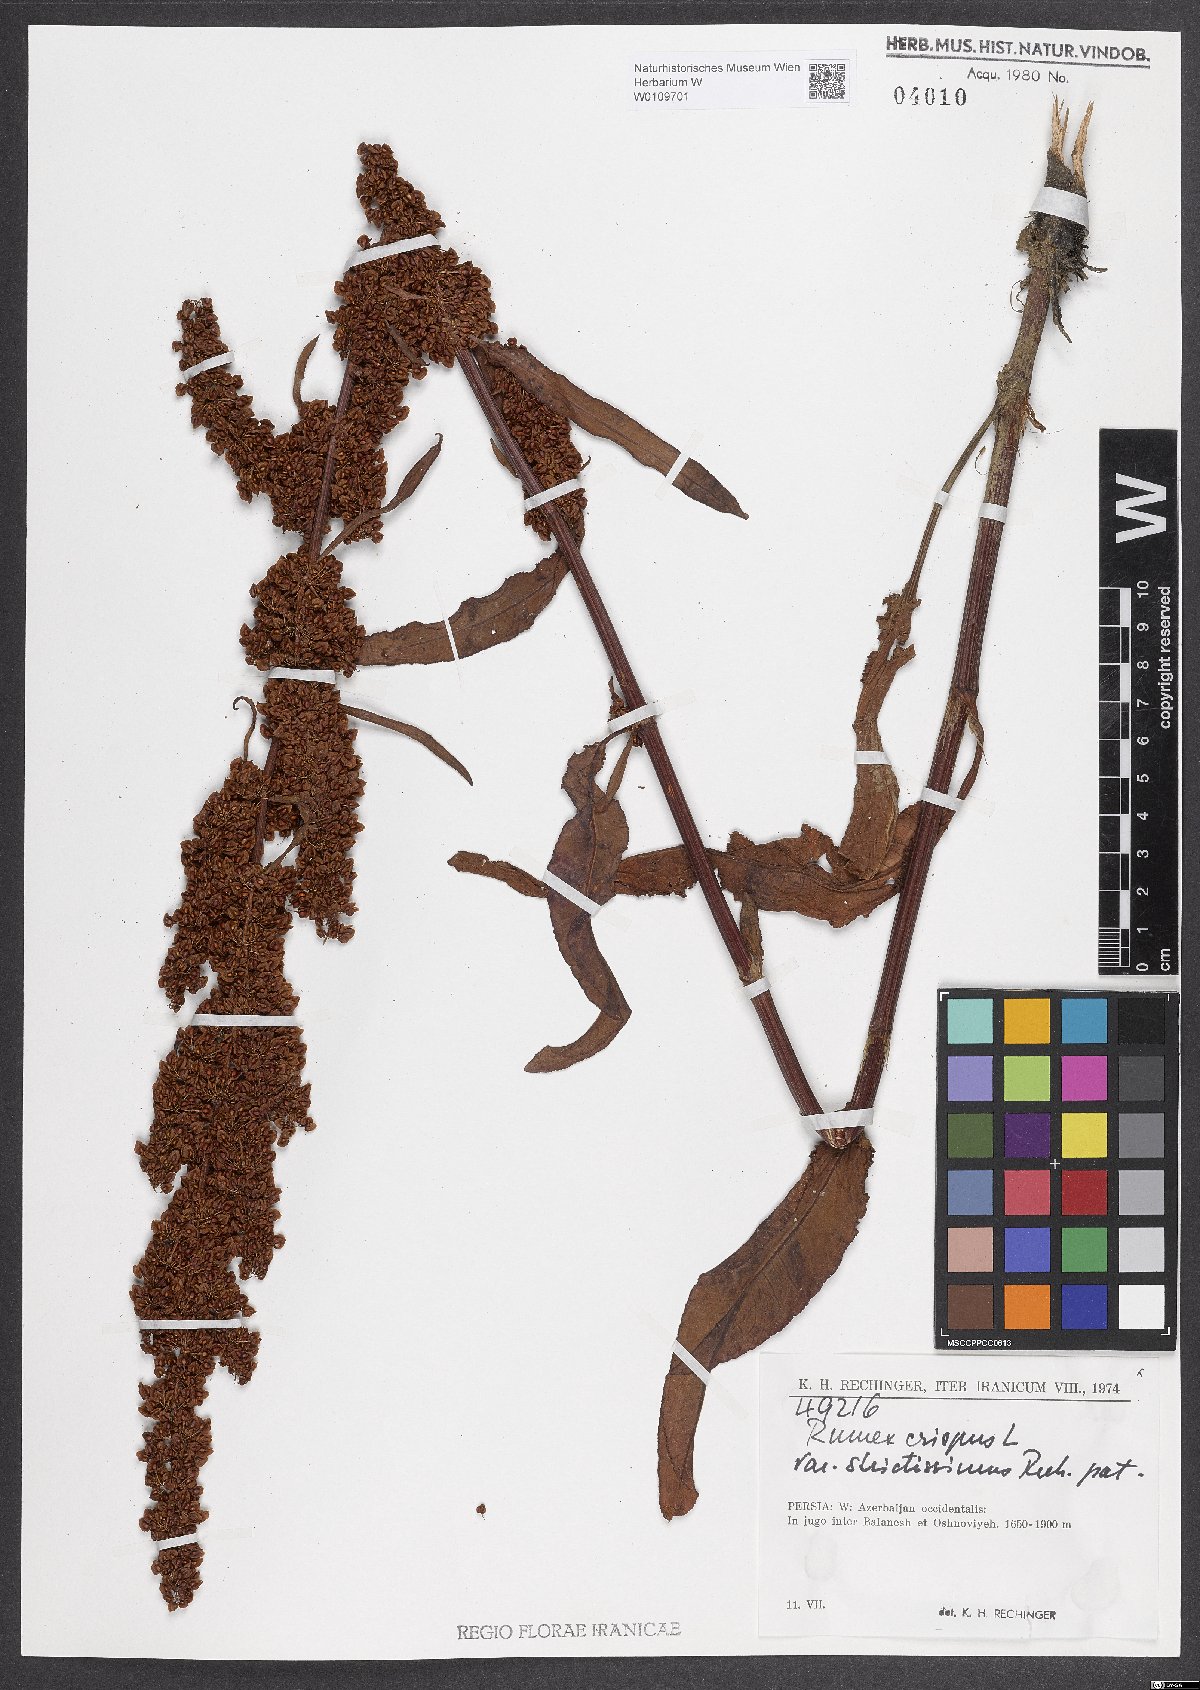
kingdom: Plantae
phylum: Tracheophyta
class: Magnoliopsida
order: Caryophyllales
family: Polygonaceae
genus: Rumex
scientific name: Rumex crispus
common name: Curled dock
